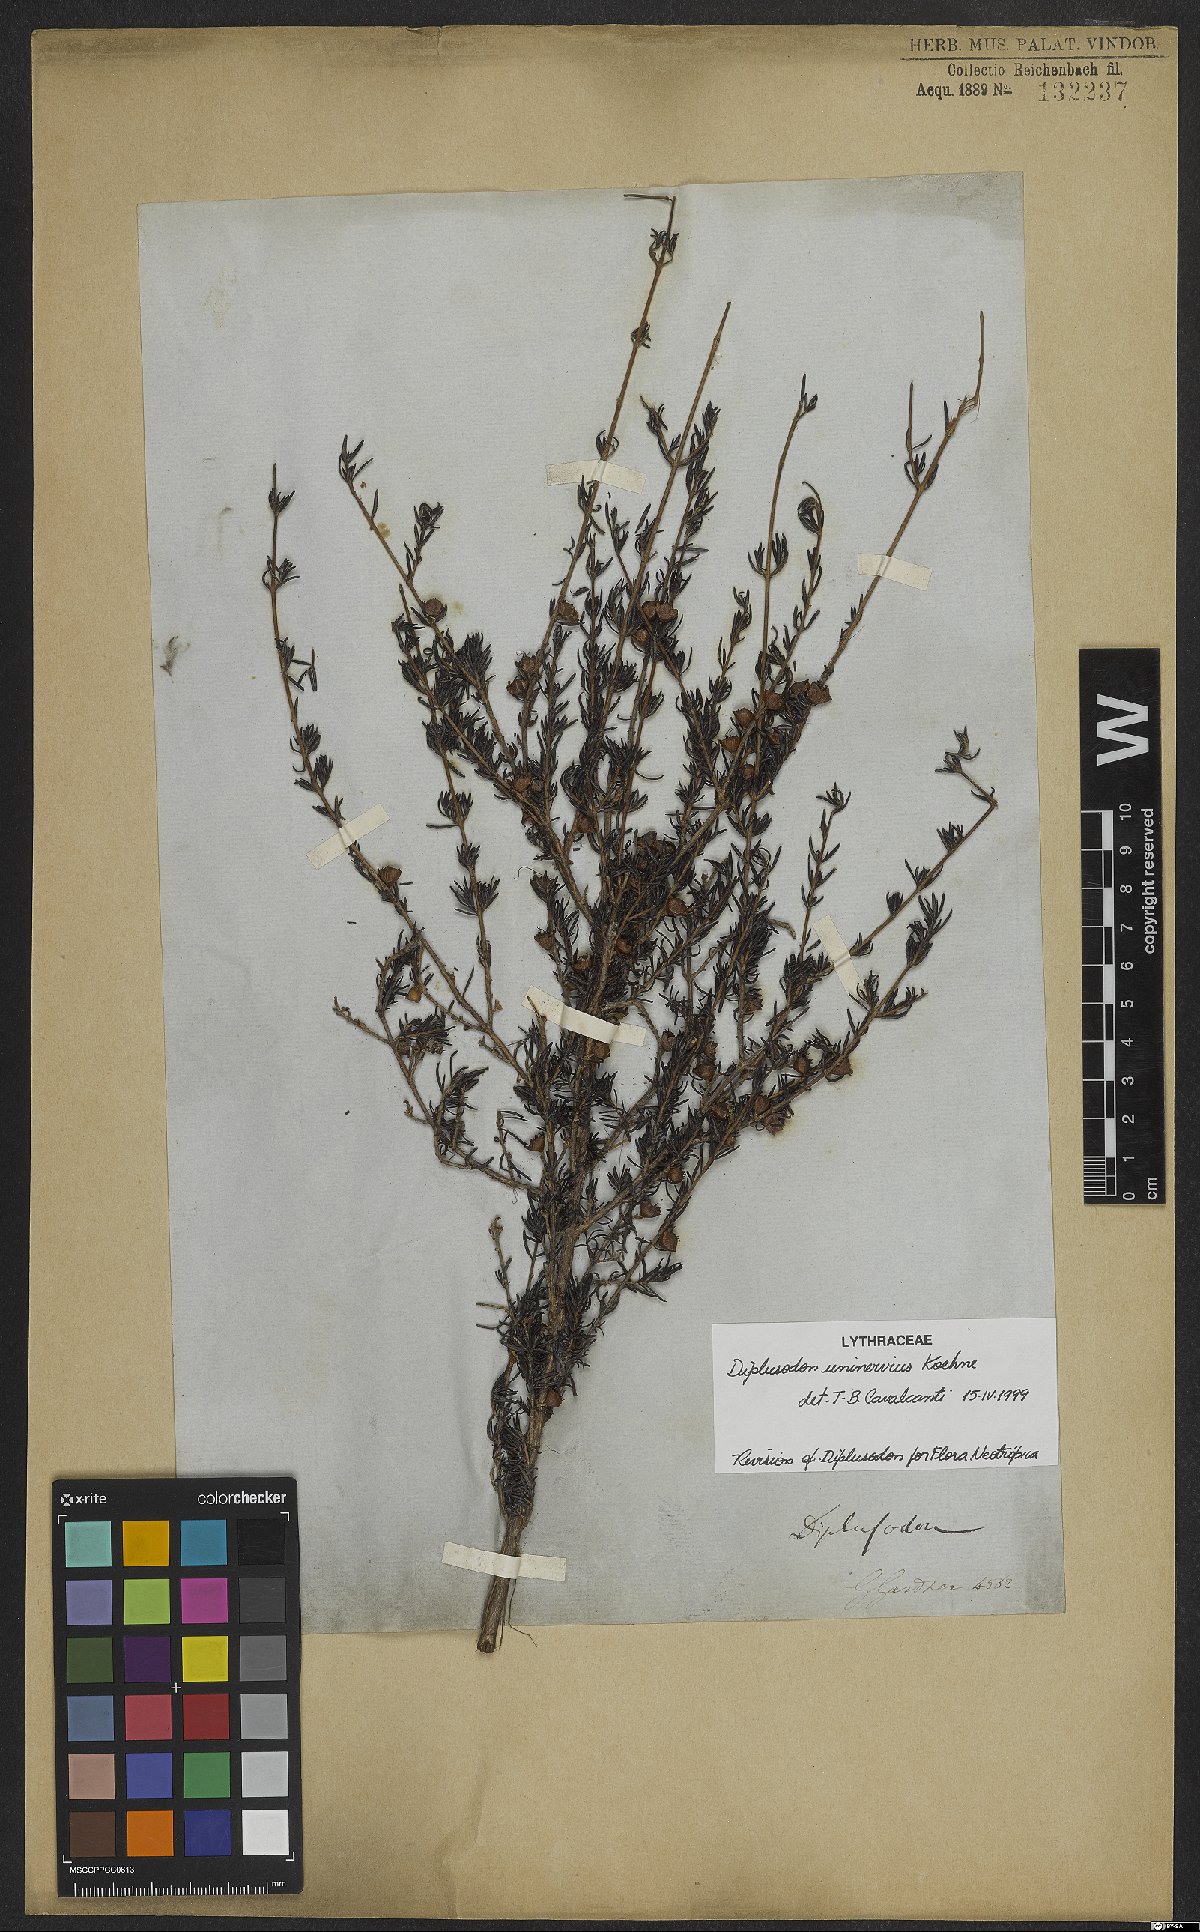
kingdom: Plantae
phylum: Tracheophyta
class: Magnoliopsida
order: Myrtales
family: Lythraceae
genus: Diplusodon
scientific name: Diplusodon uninervius
